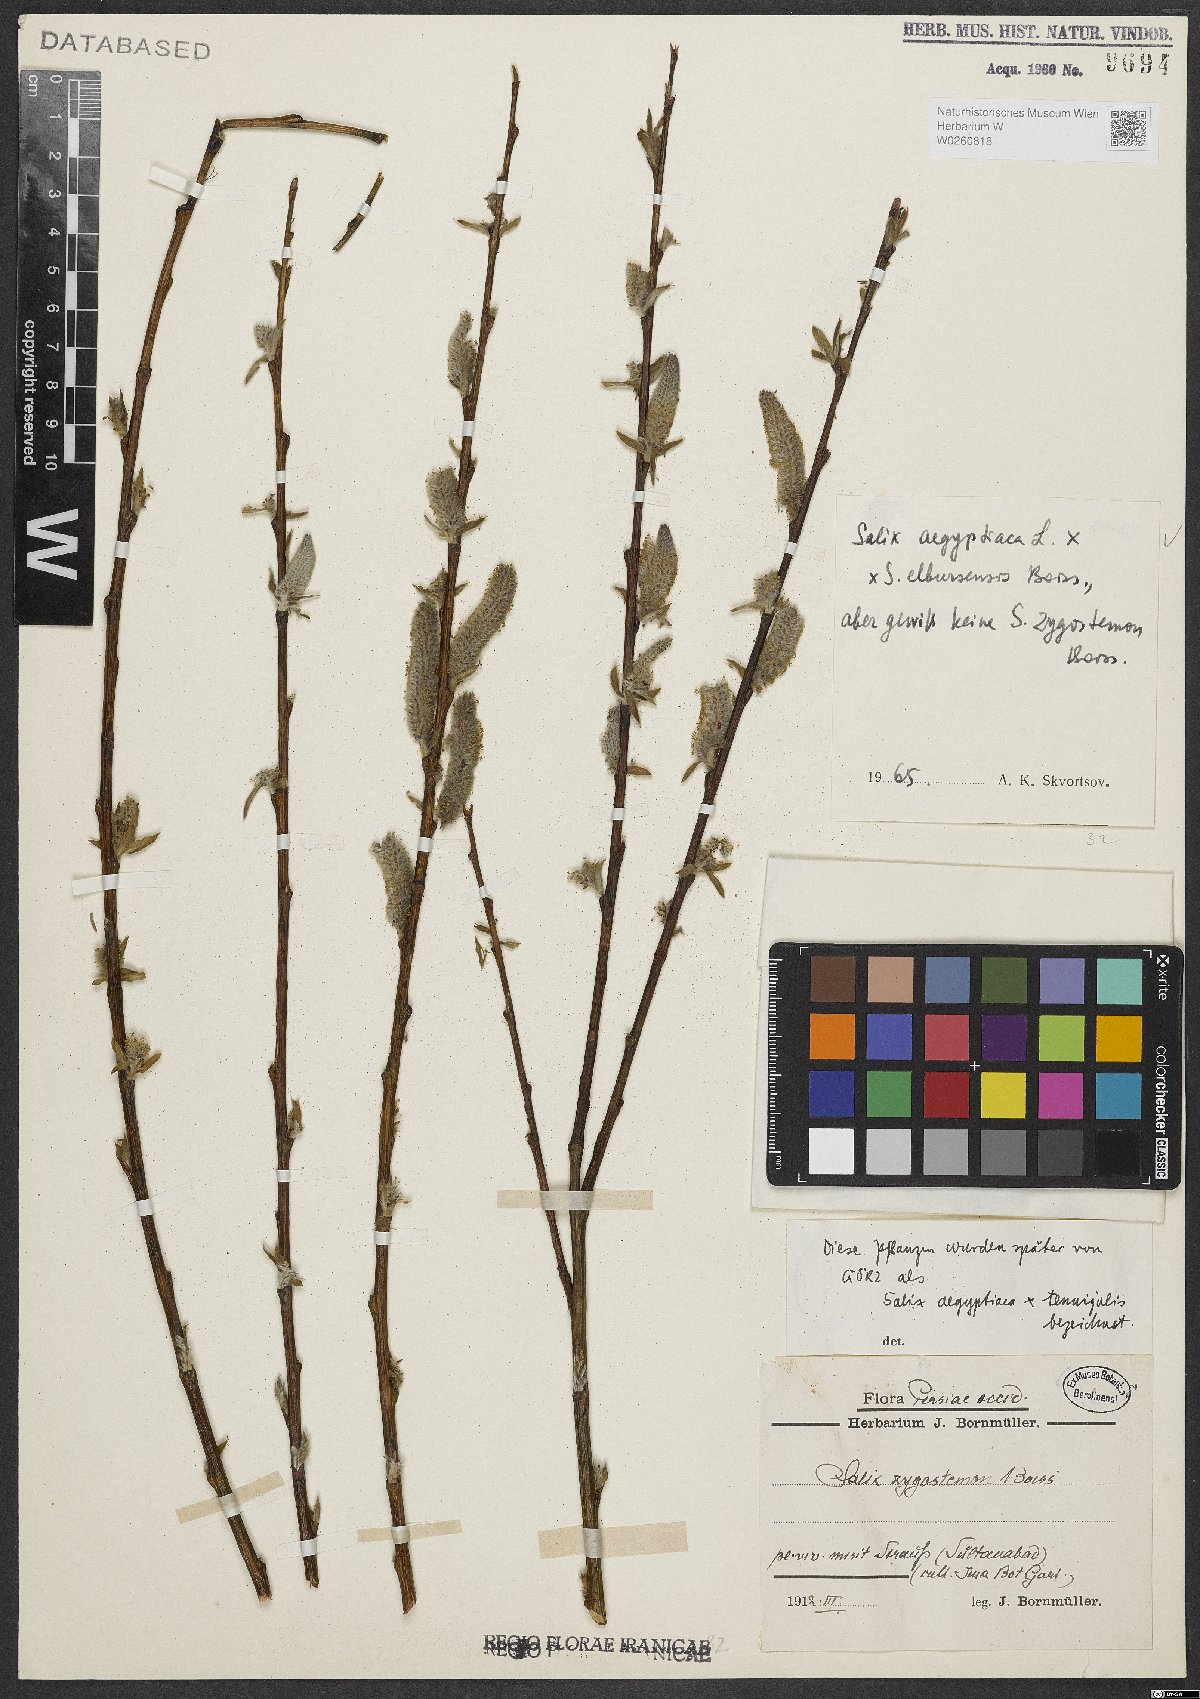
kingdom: Plantae
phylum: Tracheophyta
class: Magnoliopsida
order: Malpighiales
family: Salicaceae
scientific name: Salicaceae
